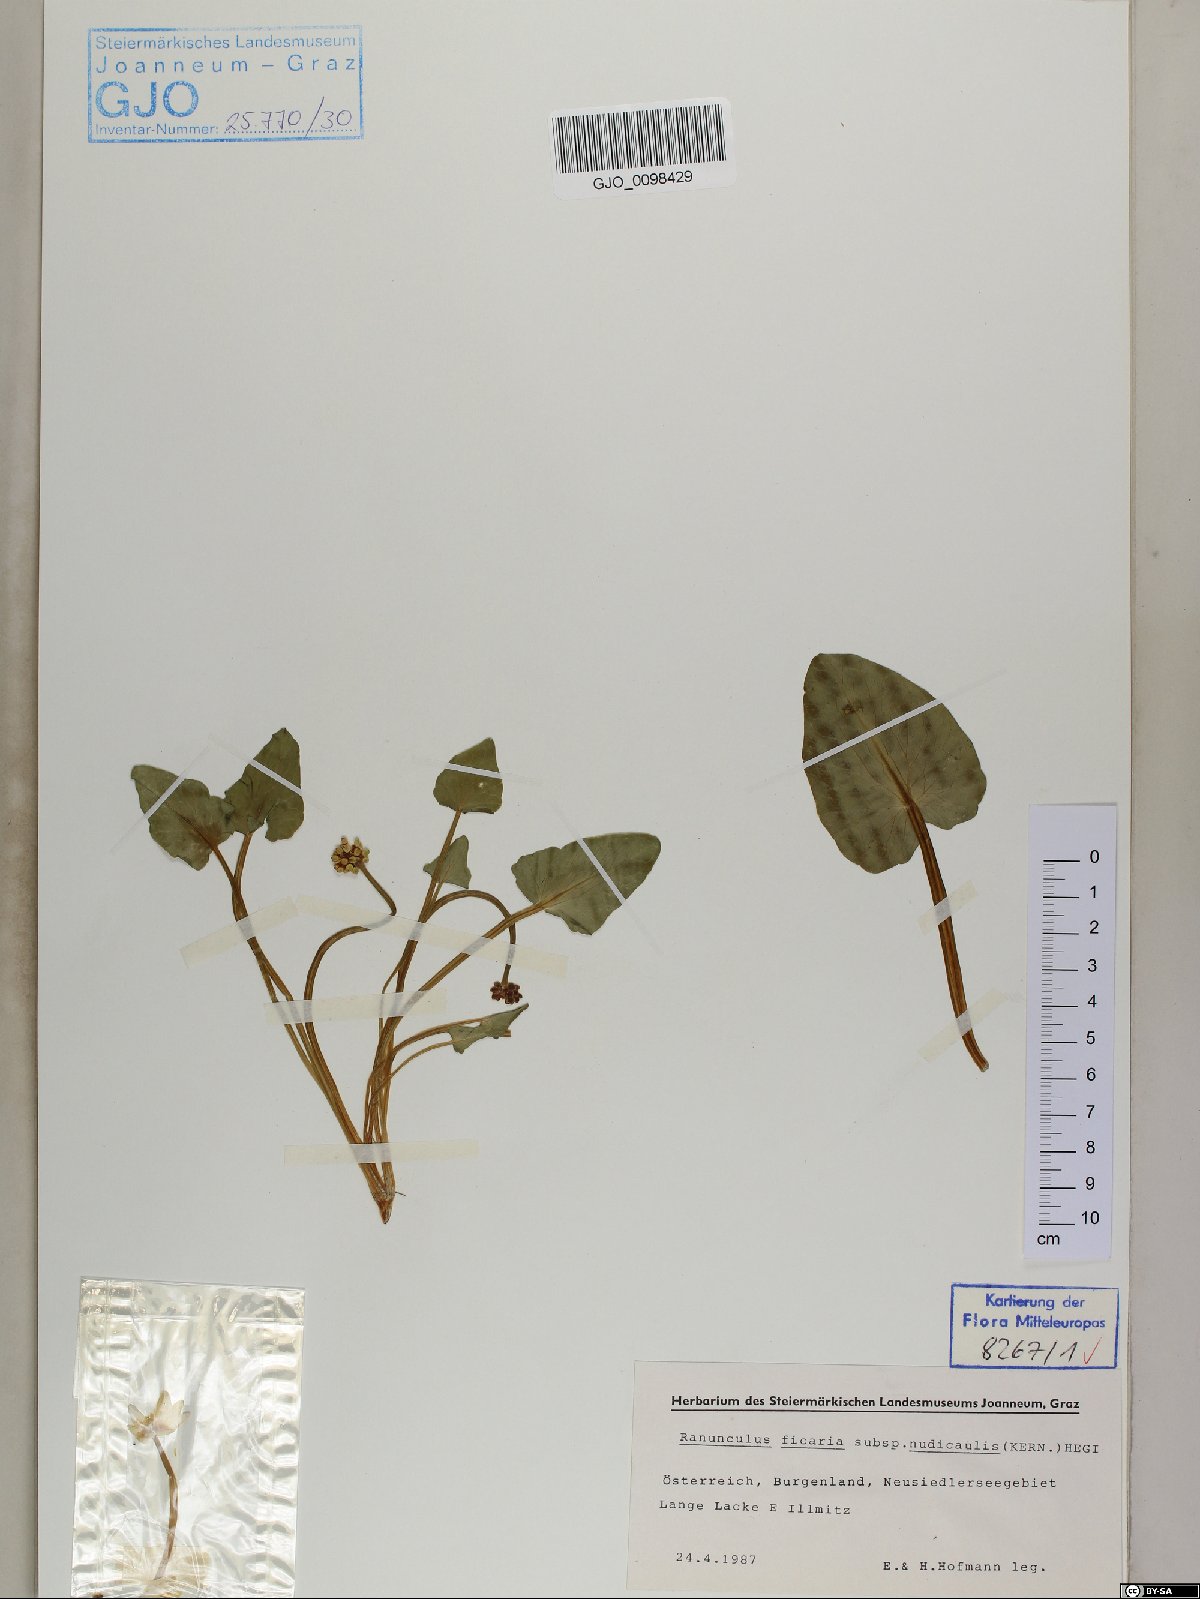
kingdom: Plantae
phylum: Tracheophyta
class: Magnoliopsida
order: Ranunculales
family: Ranunculaceae
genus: Ficaria
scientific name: Ficaria calthifolia
